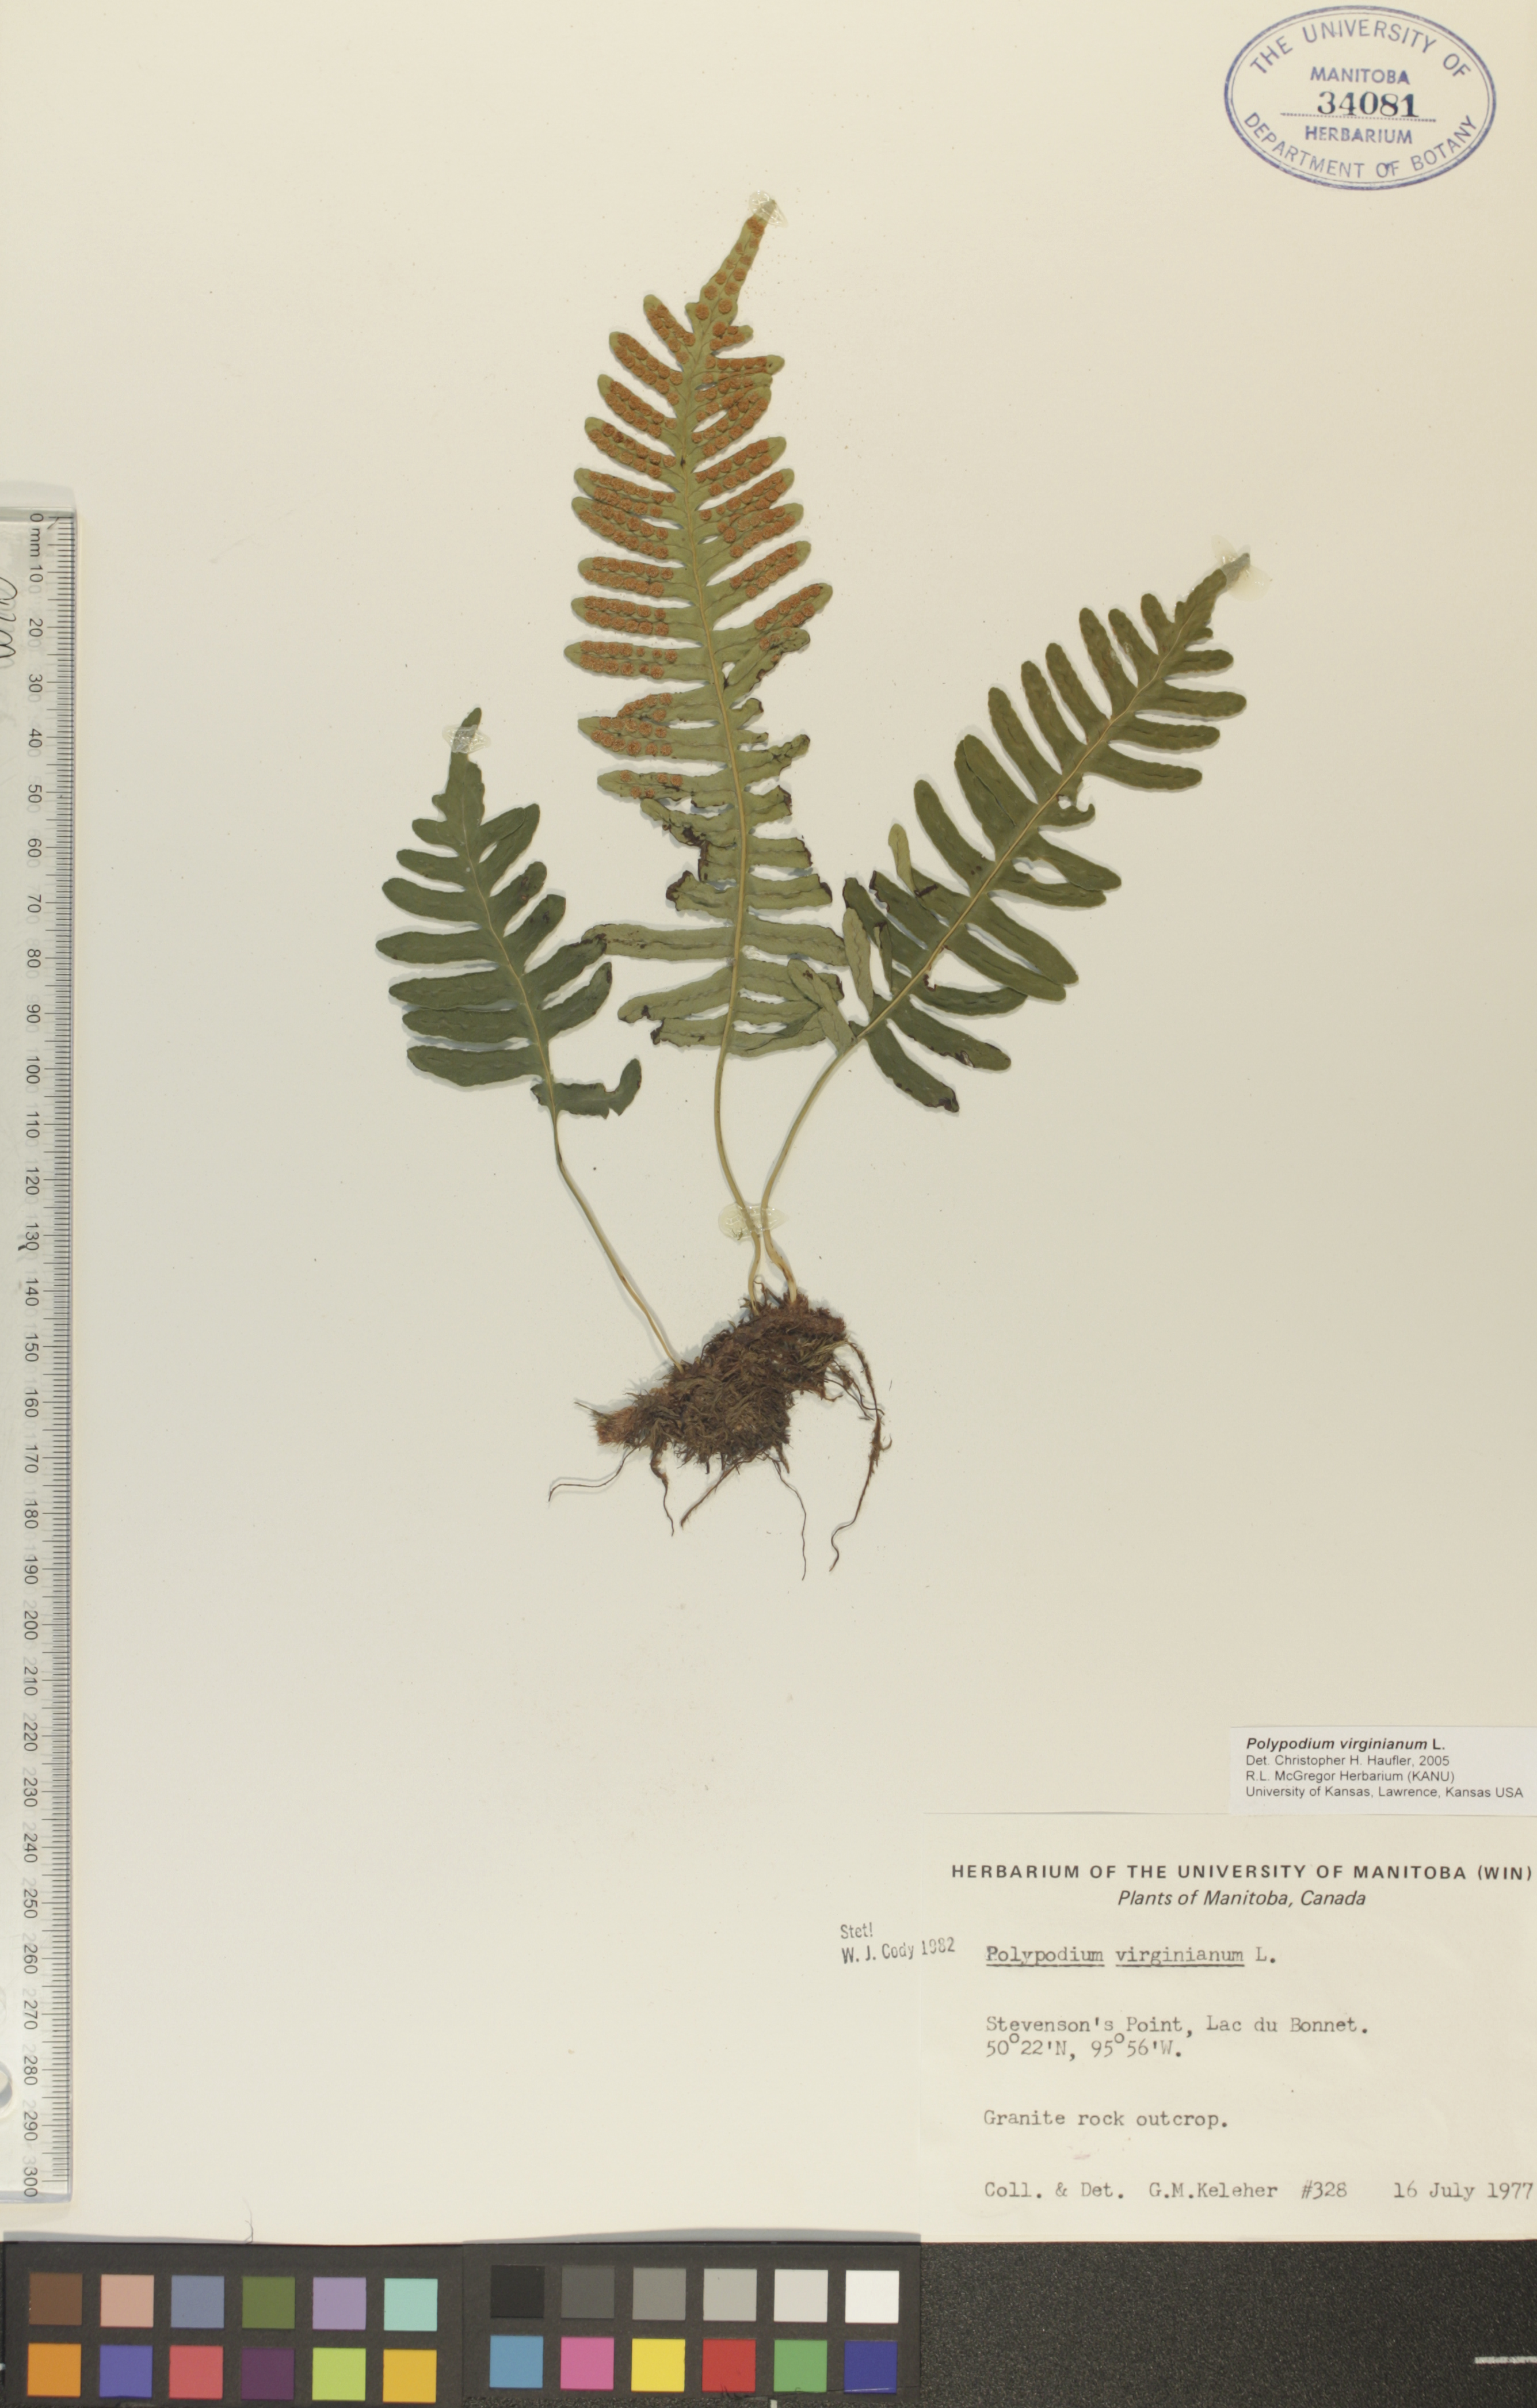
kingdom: Plantae
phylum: Tracheophyta
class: Polypodiopsida
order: Polypodiales
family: Polypodiaceae
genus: Polypodium
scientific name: Polypodium virginianum
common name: American wall fern
